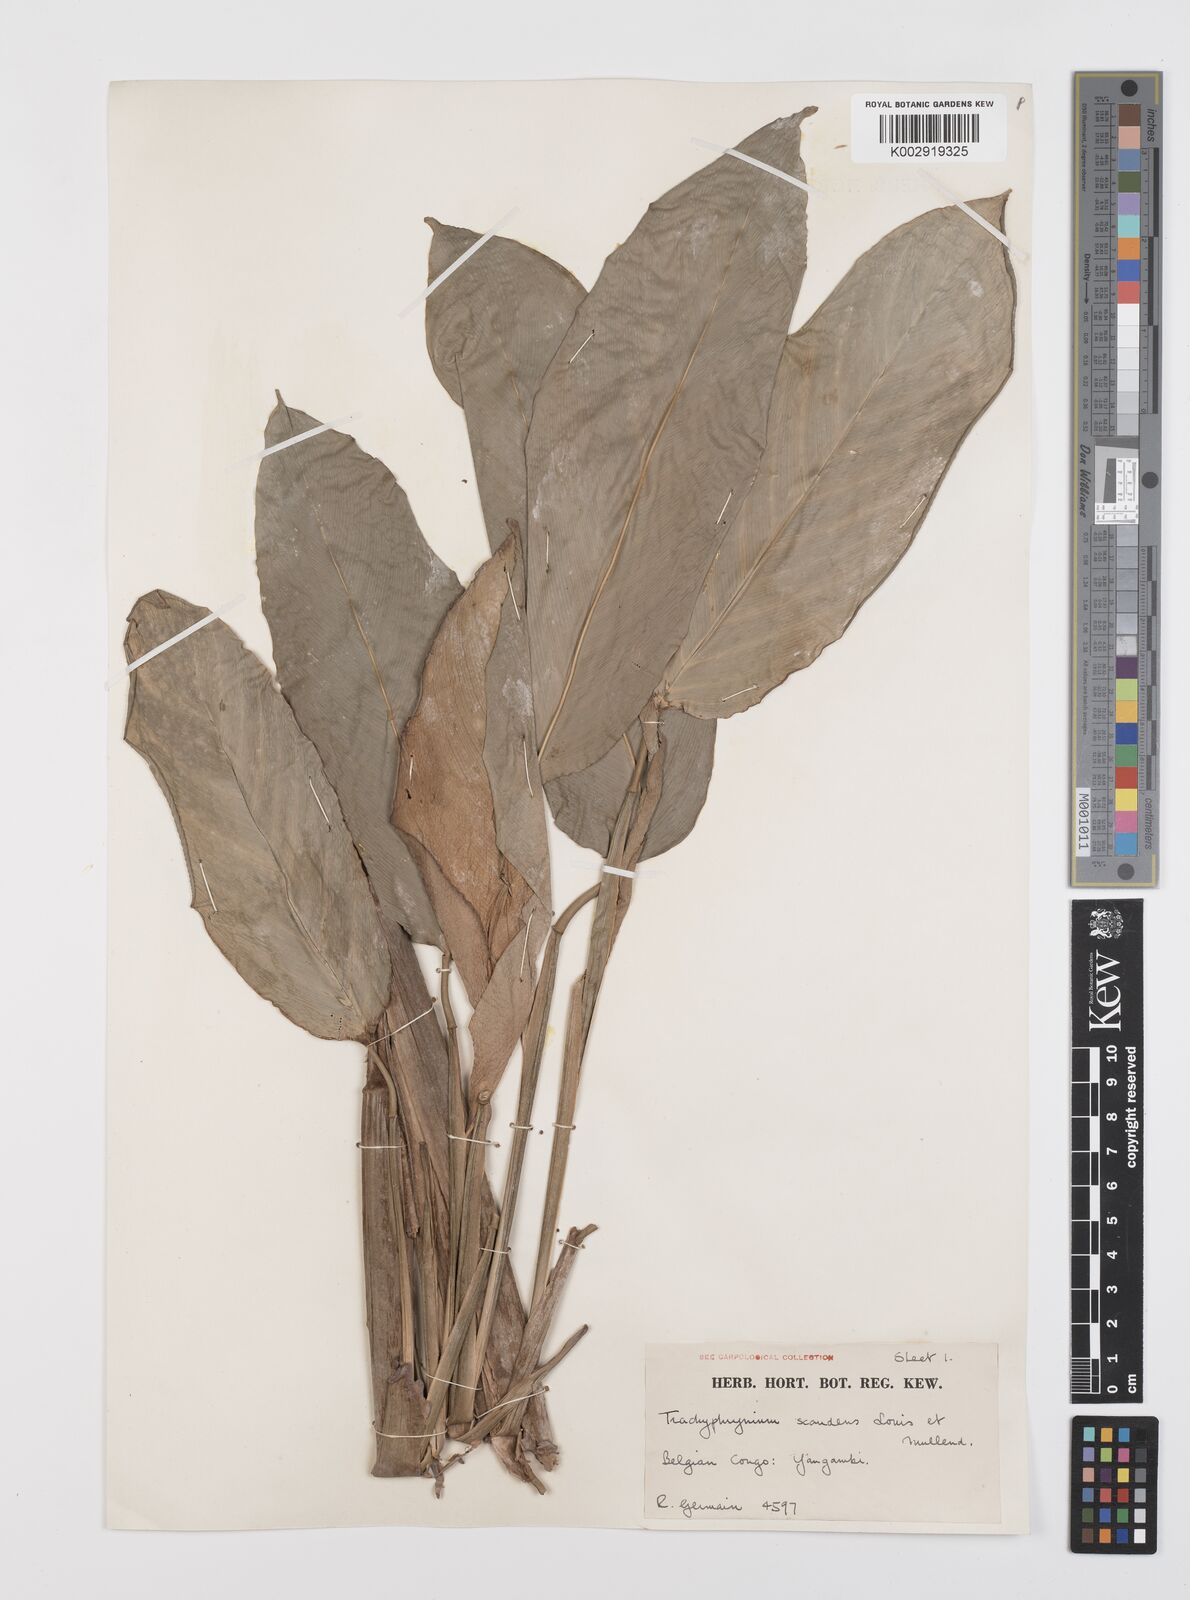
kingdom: Plantae
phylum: Tracheophyta
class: Liliopsida
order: Zingiberales
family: Marantaceae
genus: Hypselodelphys
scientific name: Hypselodelphys scandens
